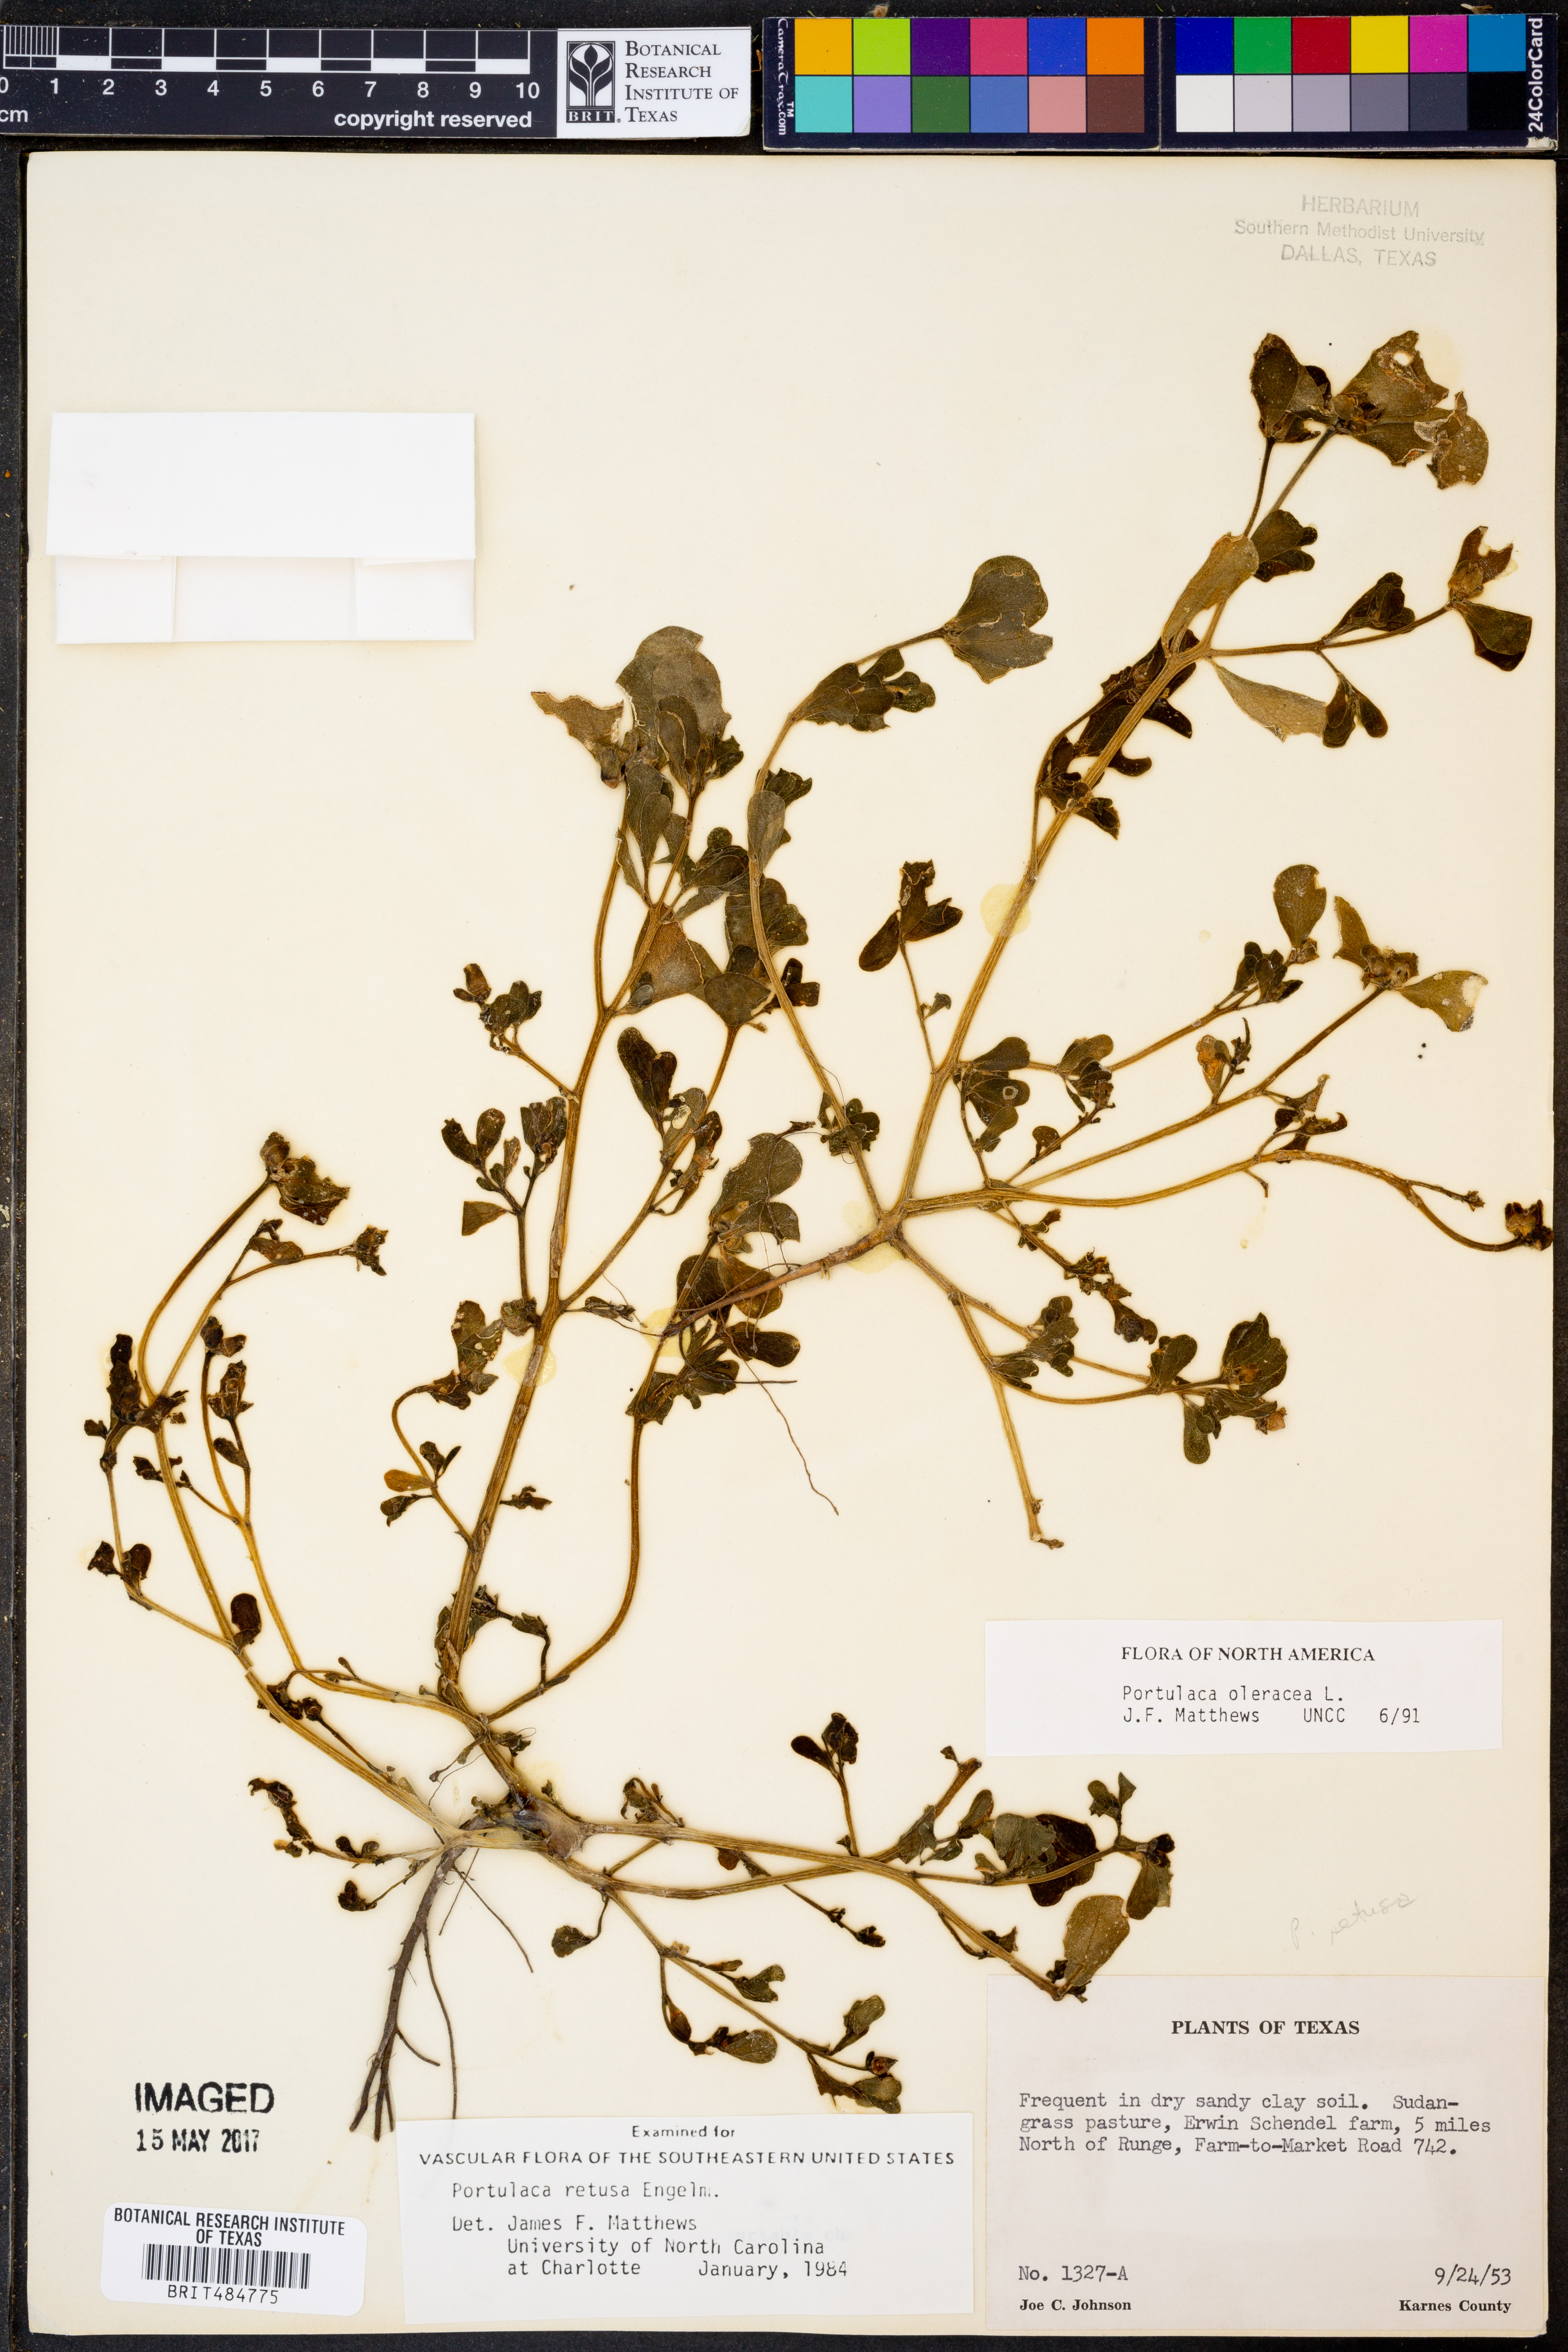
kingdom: Plantae
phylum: Tracheophyta
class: Magnoliopsida
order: Caryophyllales
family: Portulacaceae
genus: Portulaca
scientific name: Portulaca oleracea
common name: Common purslane
